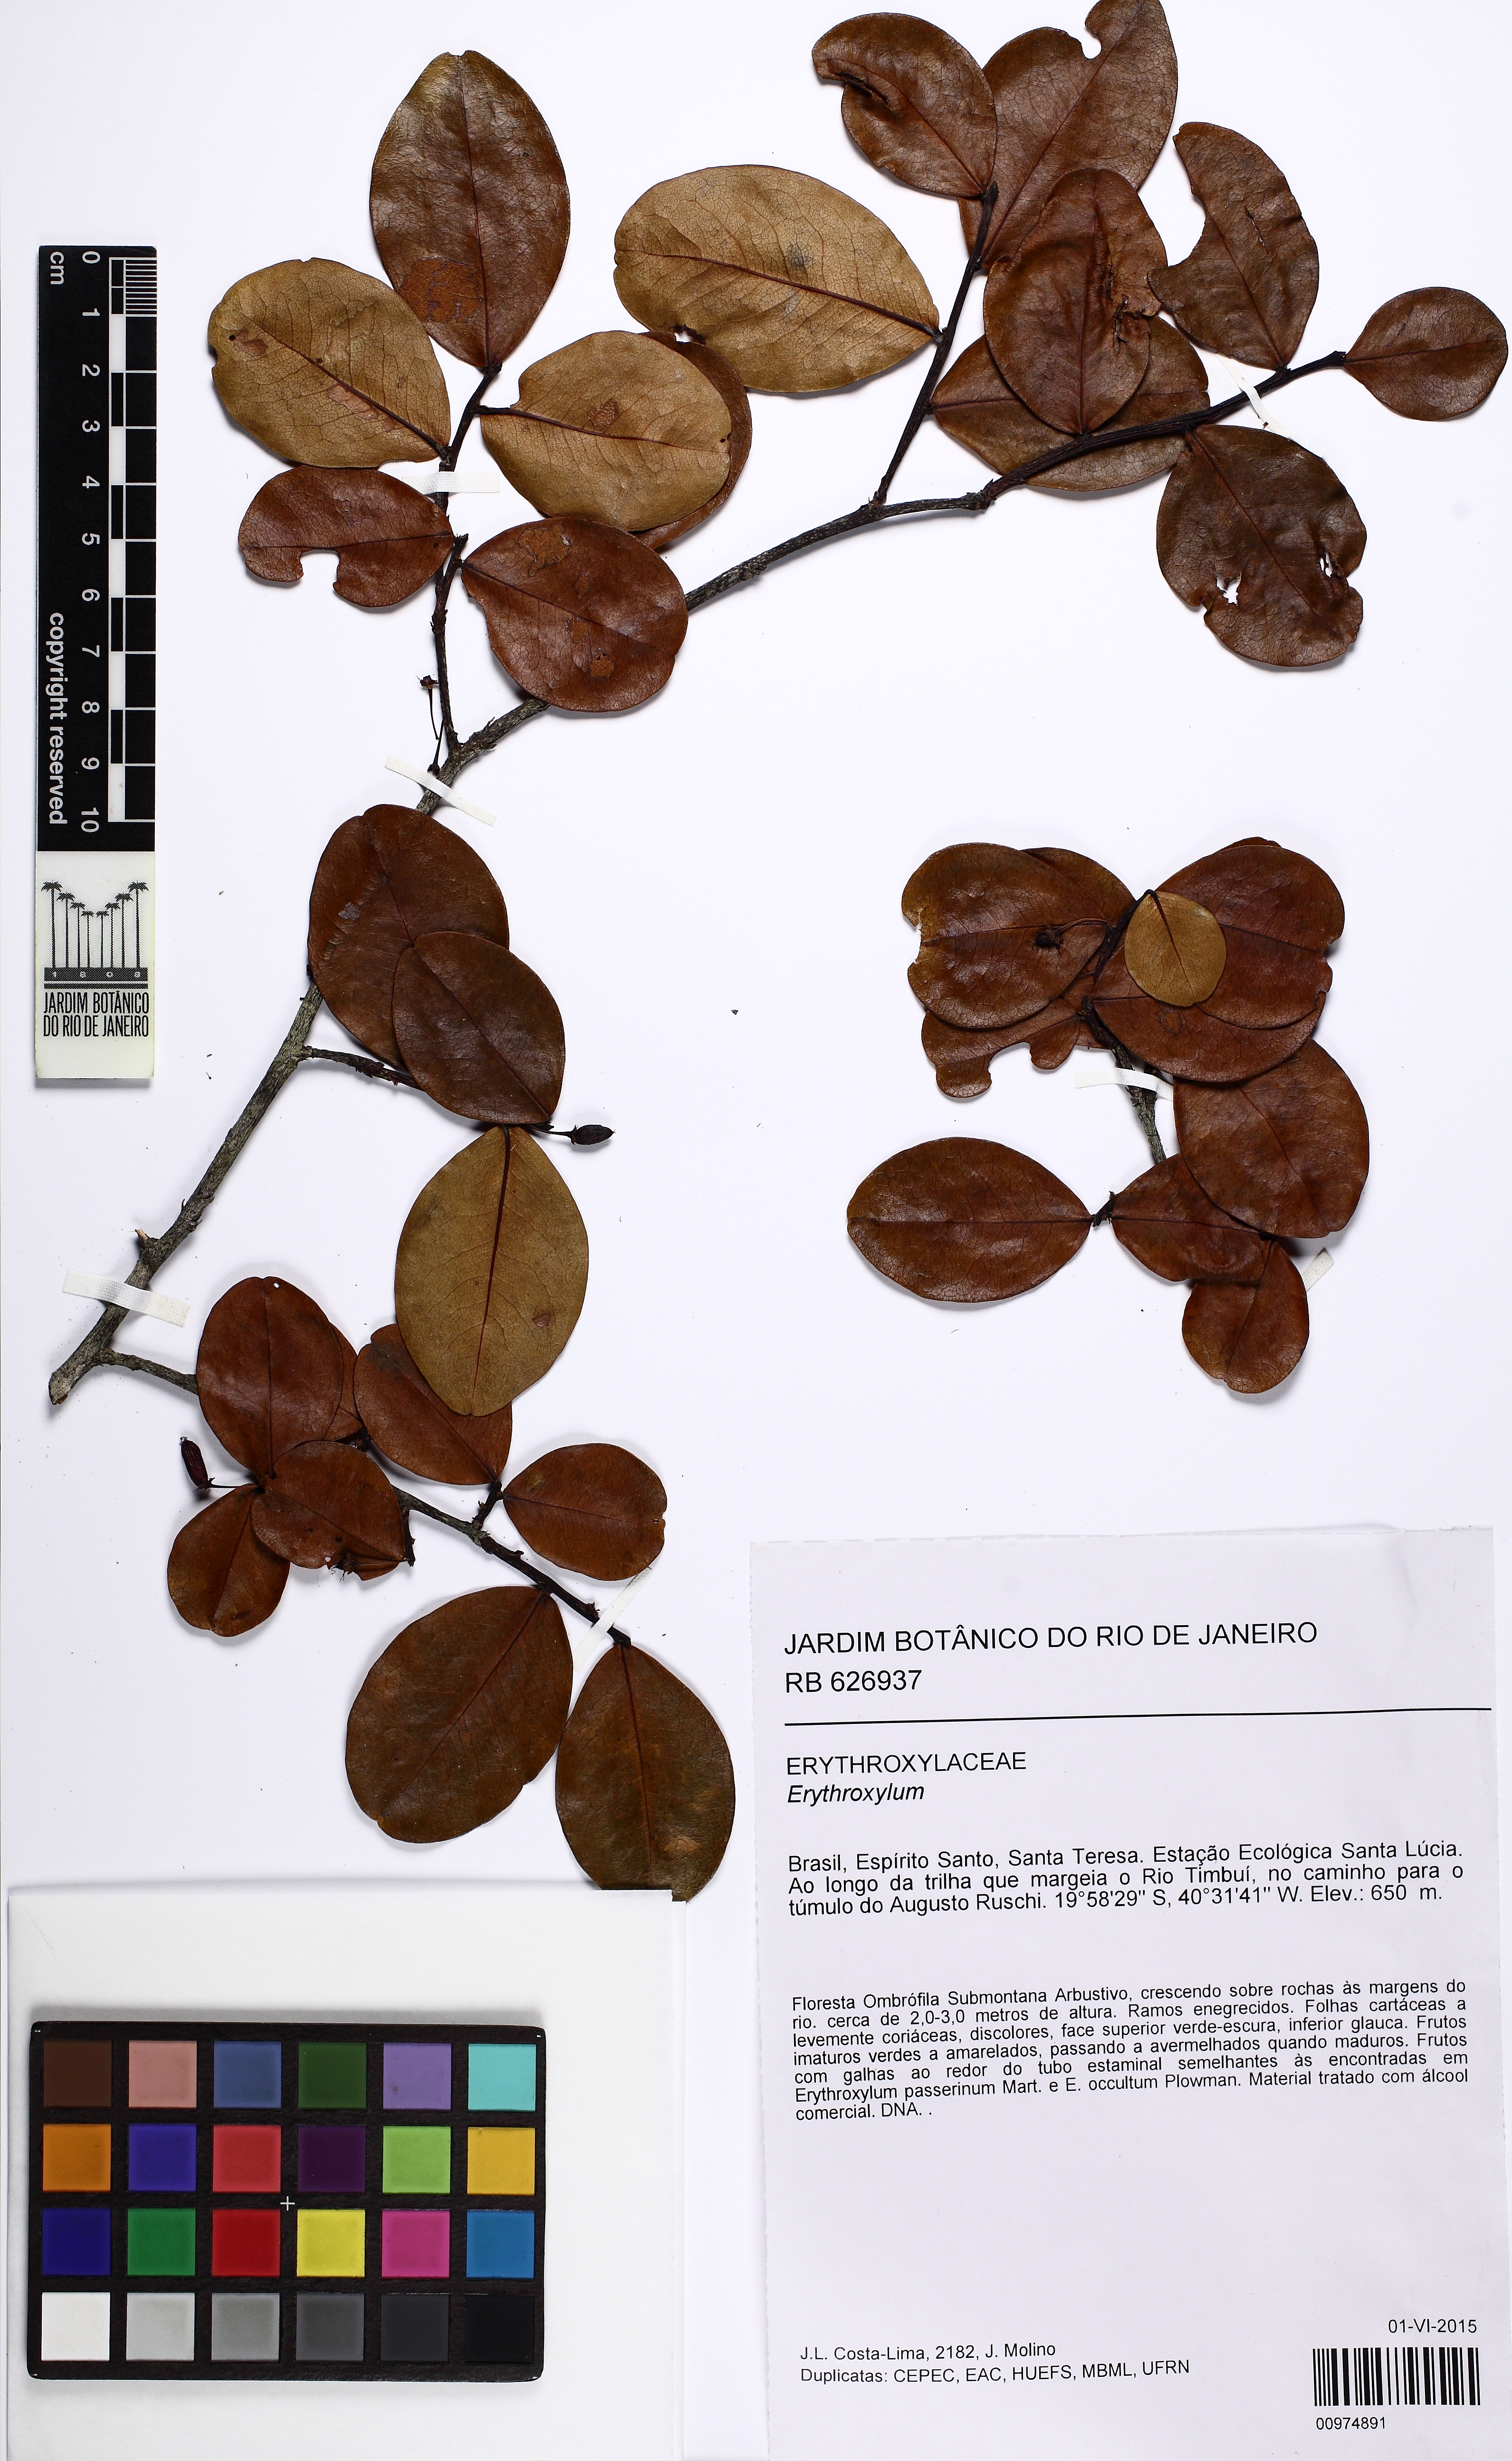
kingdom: Plantae
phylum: Tracheophyta
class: Magnoliopsida
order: Malpighiales
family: Erythroxylaceae
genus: Erythroxylum
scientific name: Erythroxylum
